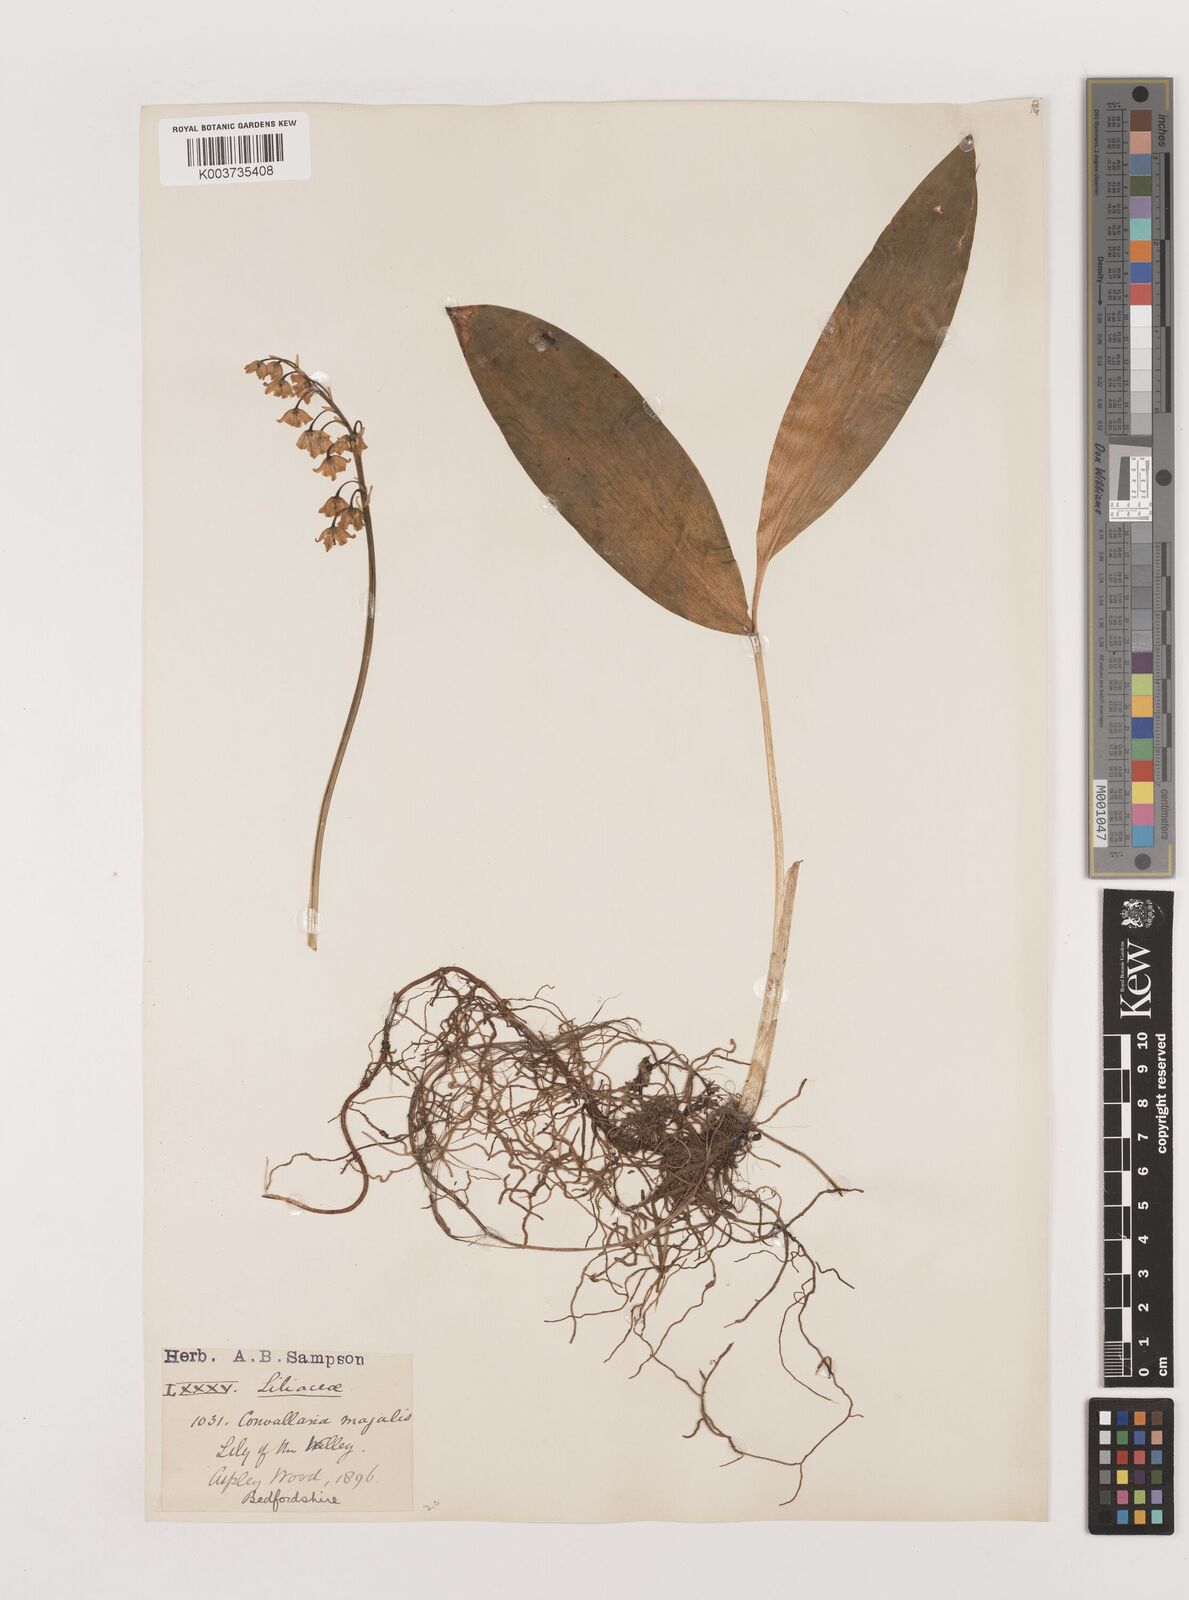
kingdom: Plantae
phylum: Tracheophyta
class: Liliopsida
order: Asparagales
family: Asparagaceae
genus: Convallaria
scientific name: Convallaria majalis
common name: Lily-of-the-valley
